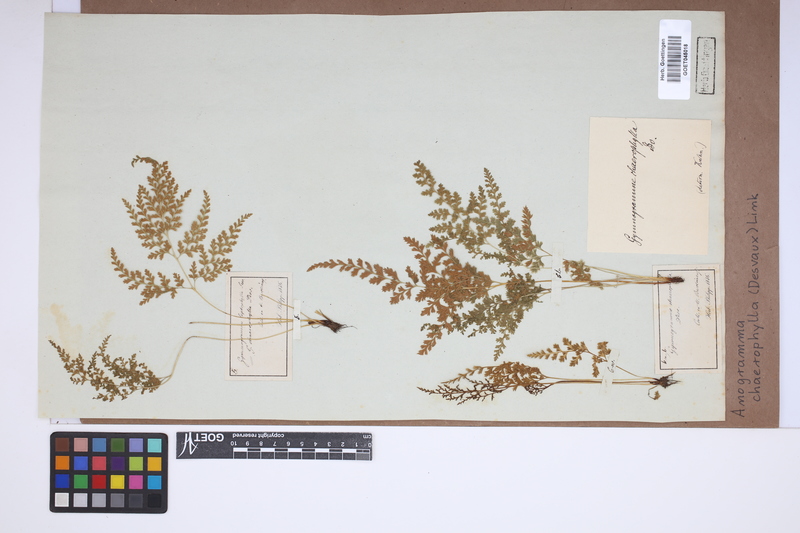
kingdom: Plantae
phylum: Tracheophyta
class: Polypodiopsida
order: Polypodiales
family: Pteridaceae
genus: Gastoniella
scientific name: Gastoniella chaerophylla
